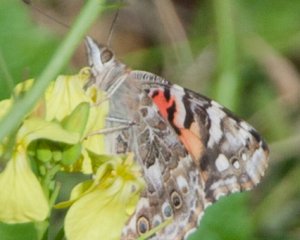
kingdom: Animalia
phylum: Arthropoda
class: Insecta
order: Lepidoptera
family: Nymphalidae
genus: Vanessa
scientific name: Vanessa cardui
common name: Painted Lady
